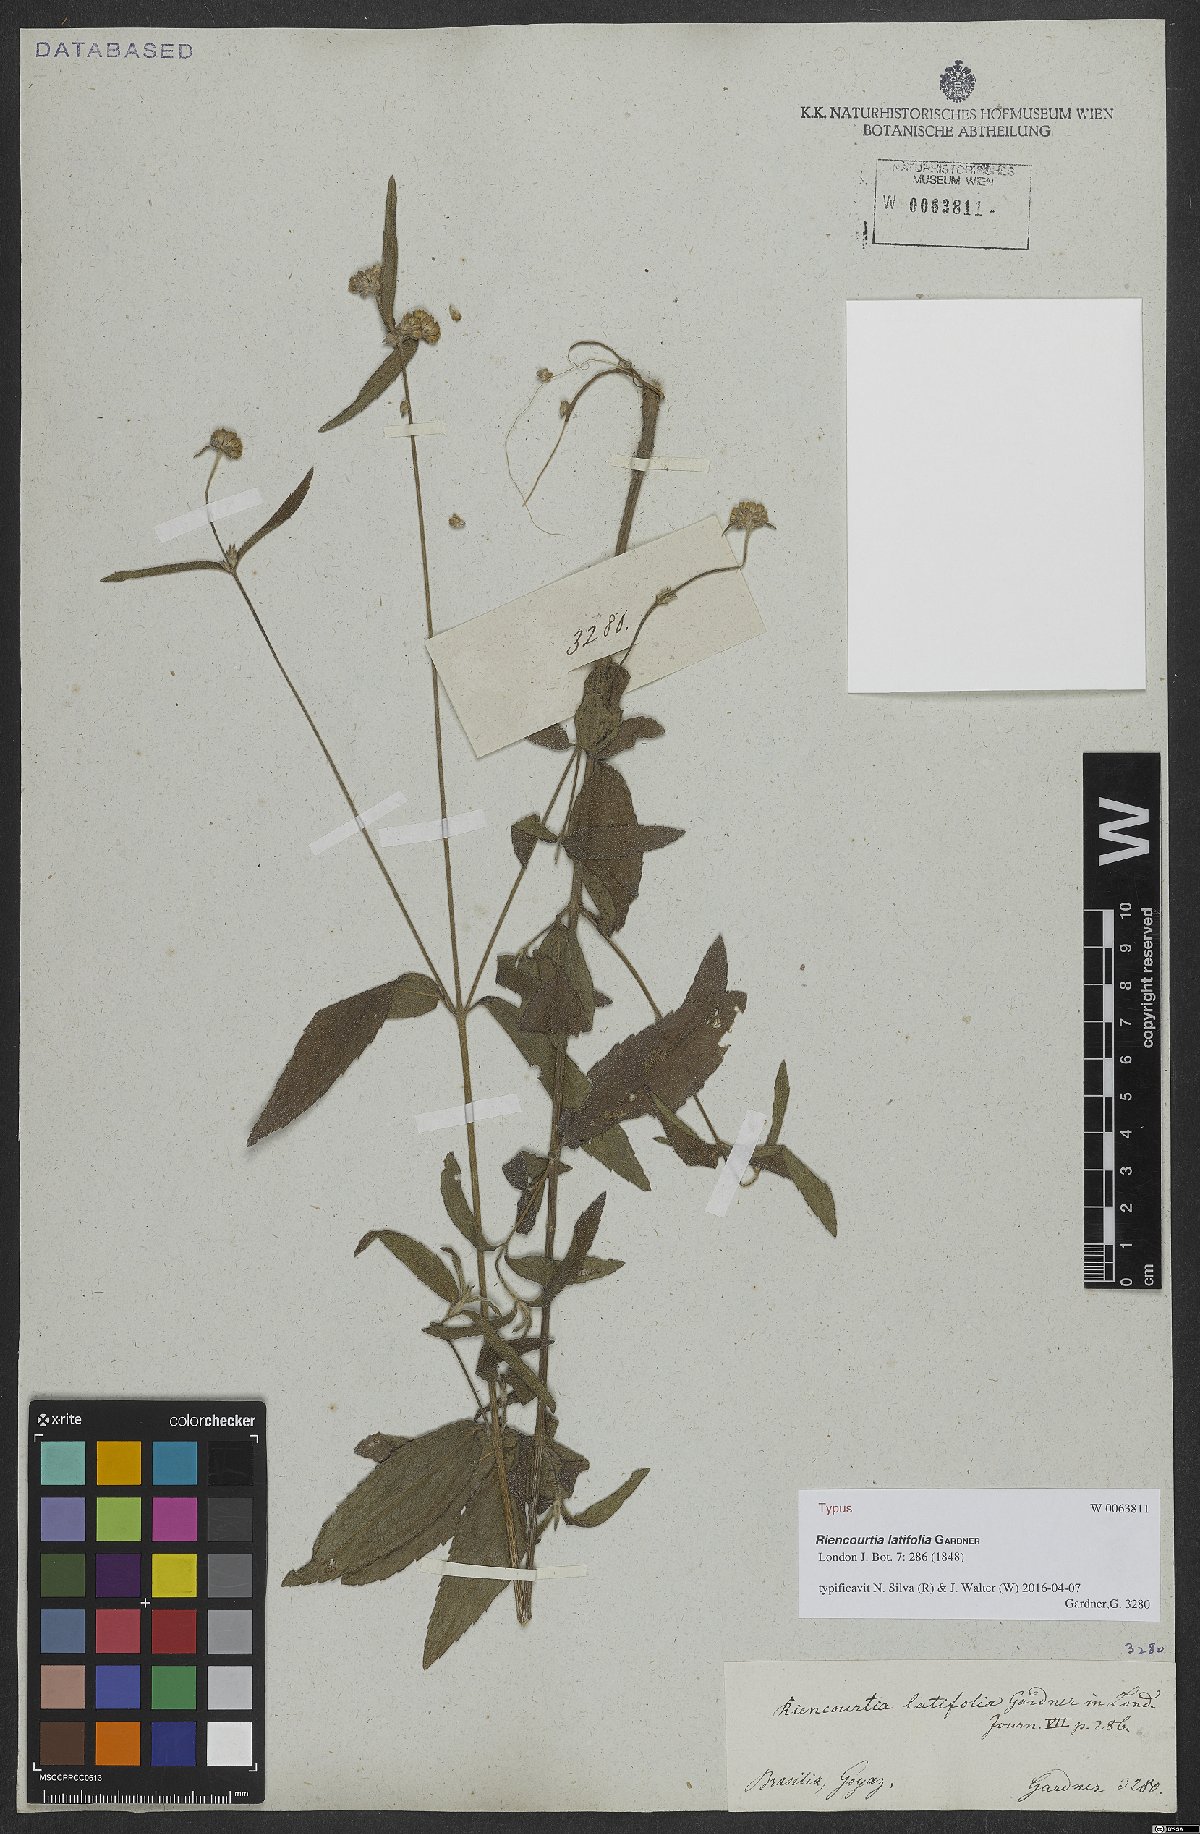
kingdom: Plantae
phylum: Tracheophyta
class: Magnoliopsida
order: Asterales
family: Asteraceae
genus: Riencourtia
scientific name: Riencourtia latifolia
